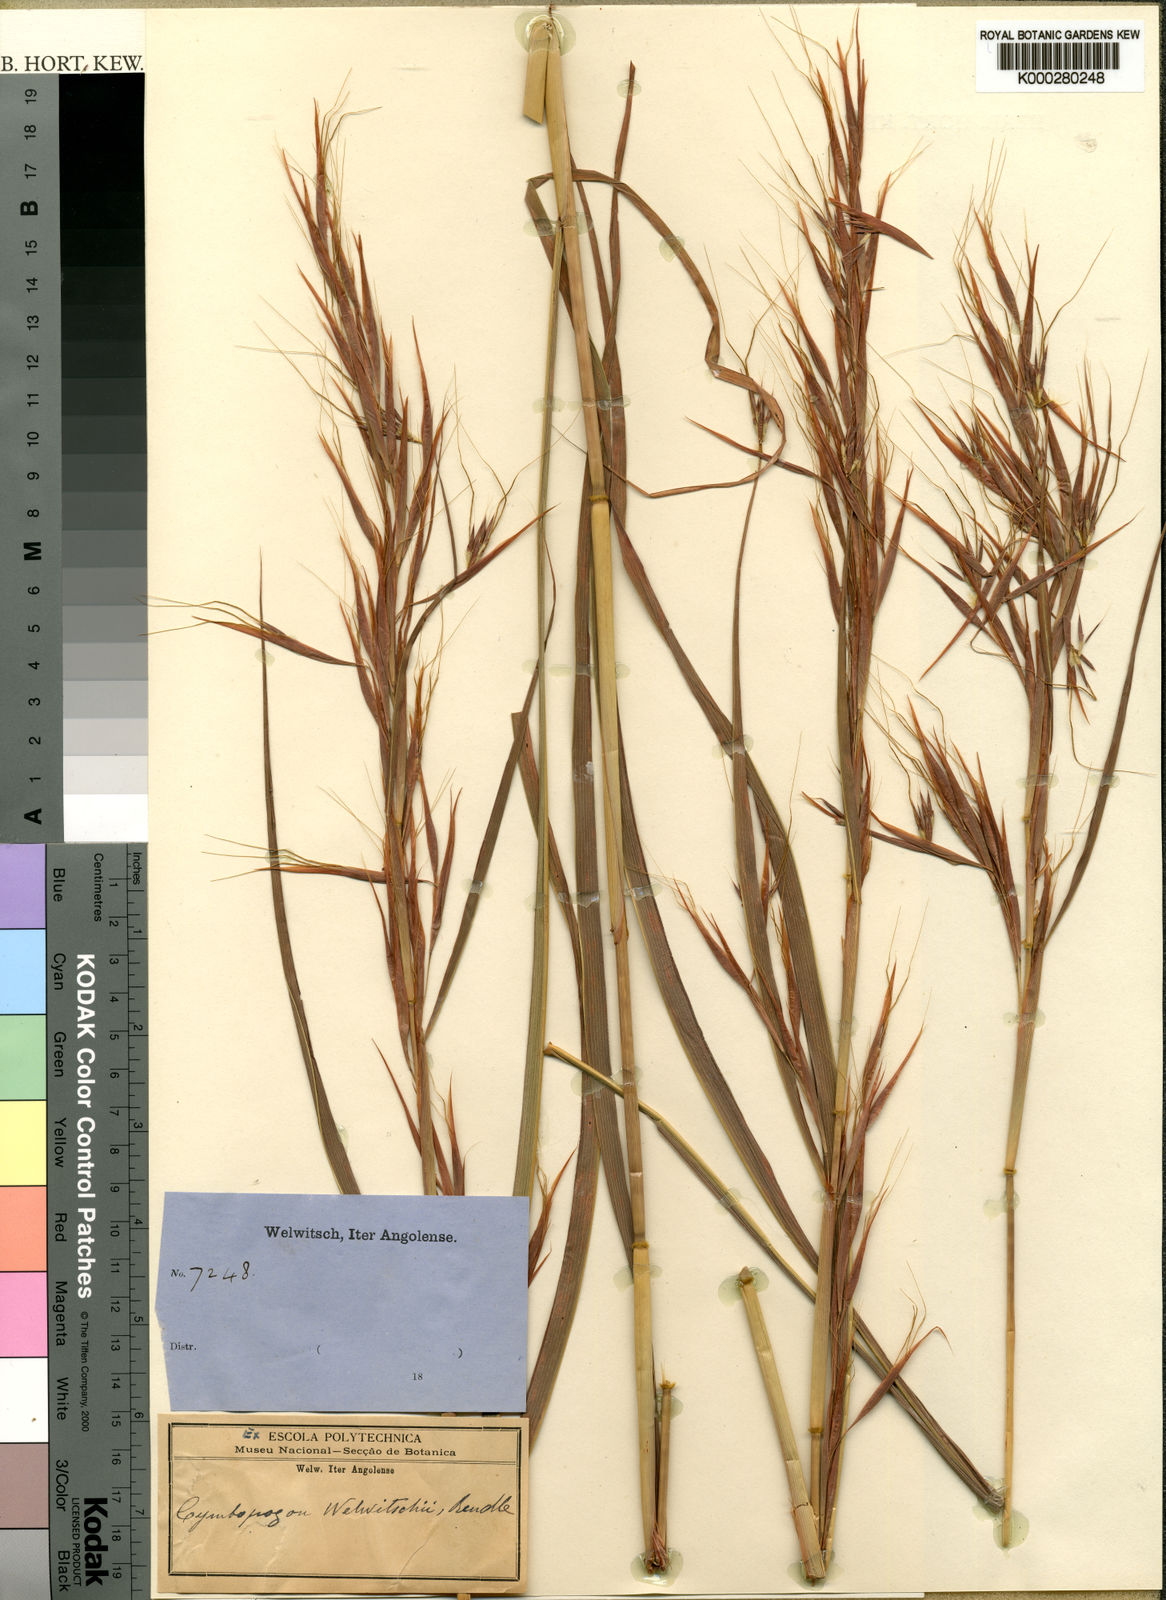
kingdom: Plantae
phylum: Tracheophyta
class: Liliopsida
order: Poales
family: Poaceae
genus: Hyparrhenia
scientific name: Hyparrhenia welwitschii
